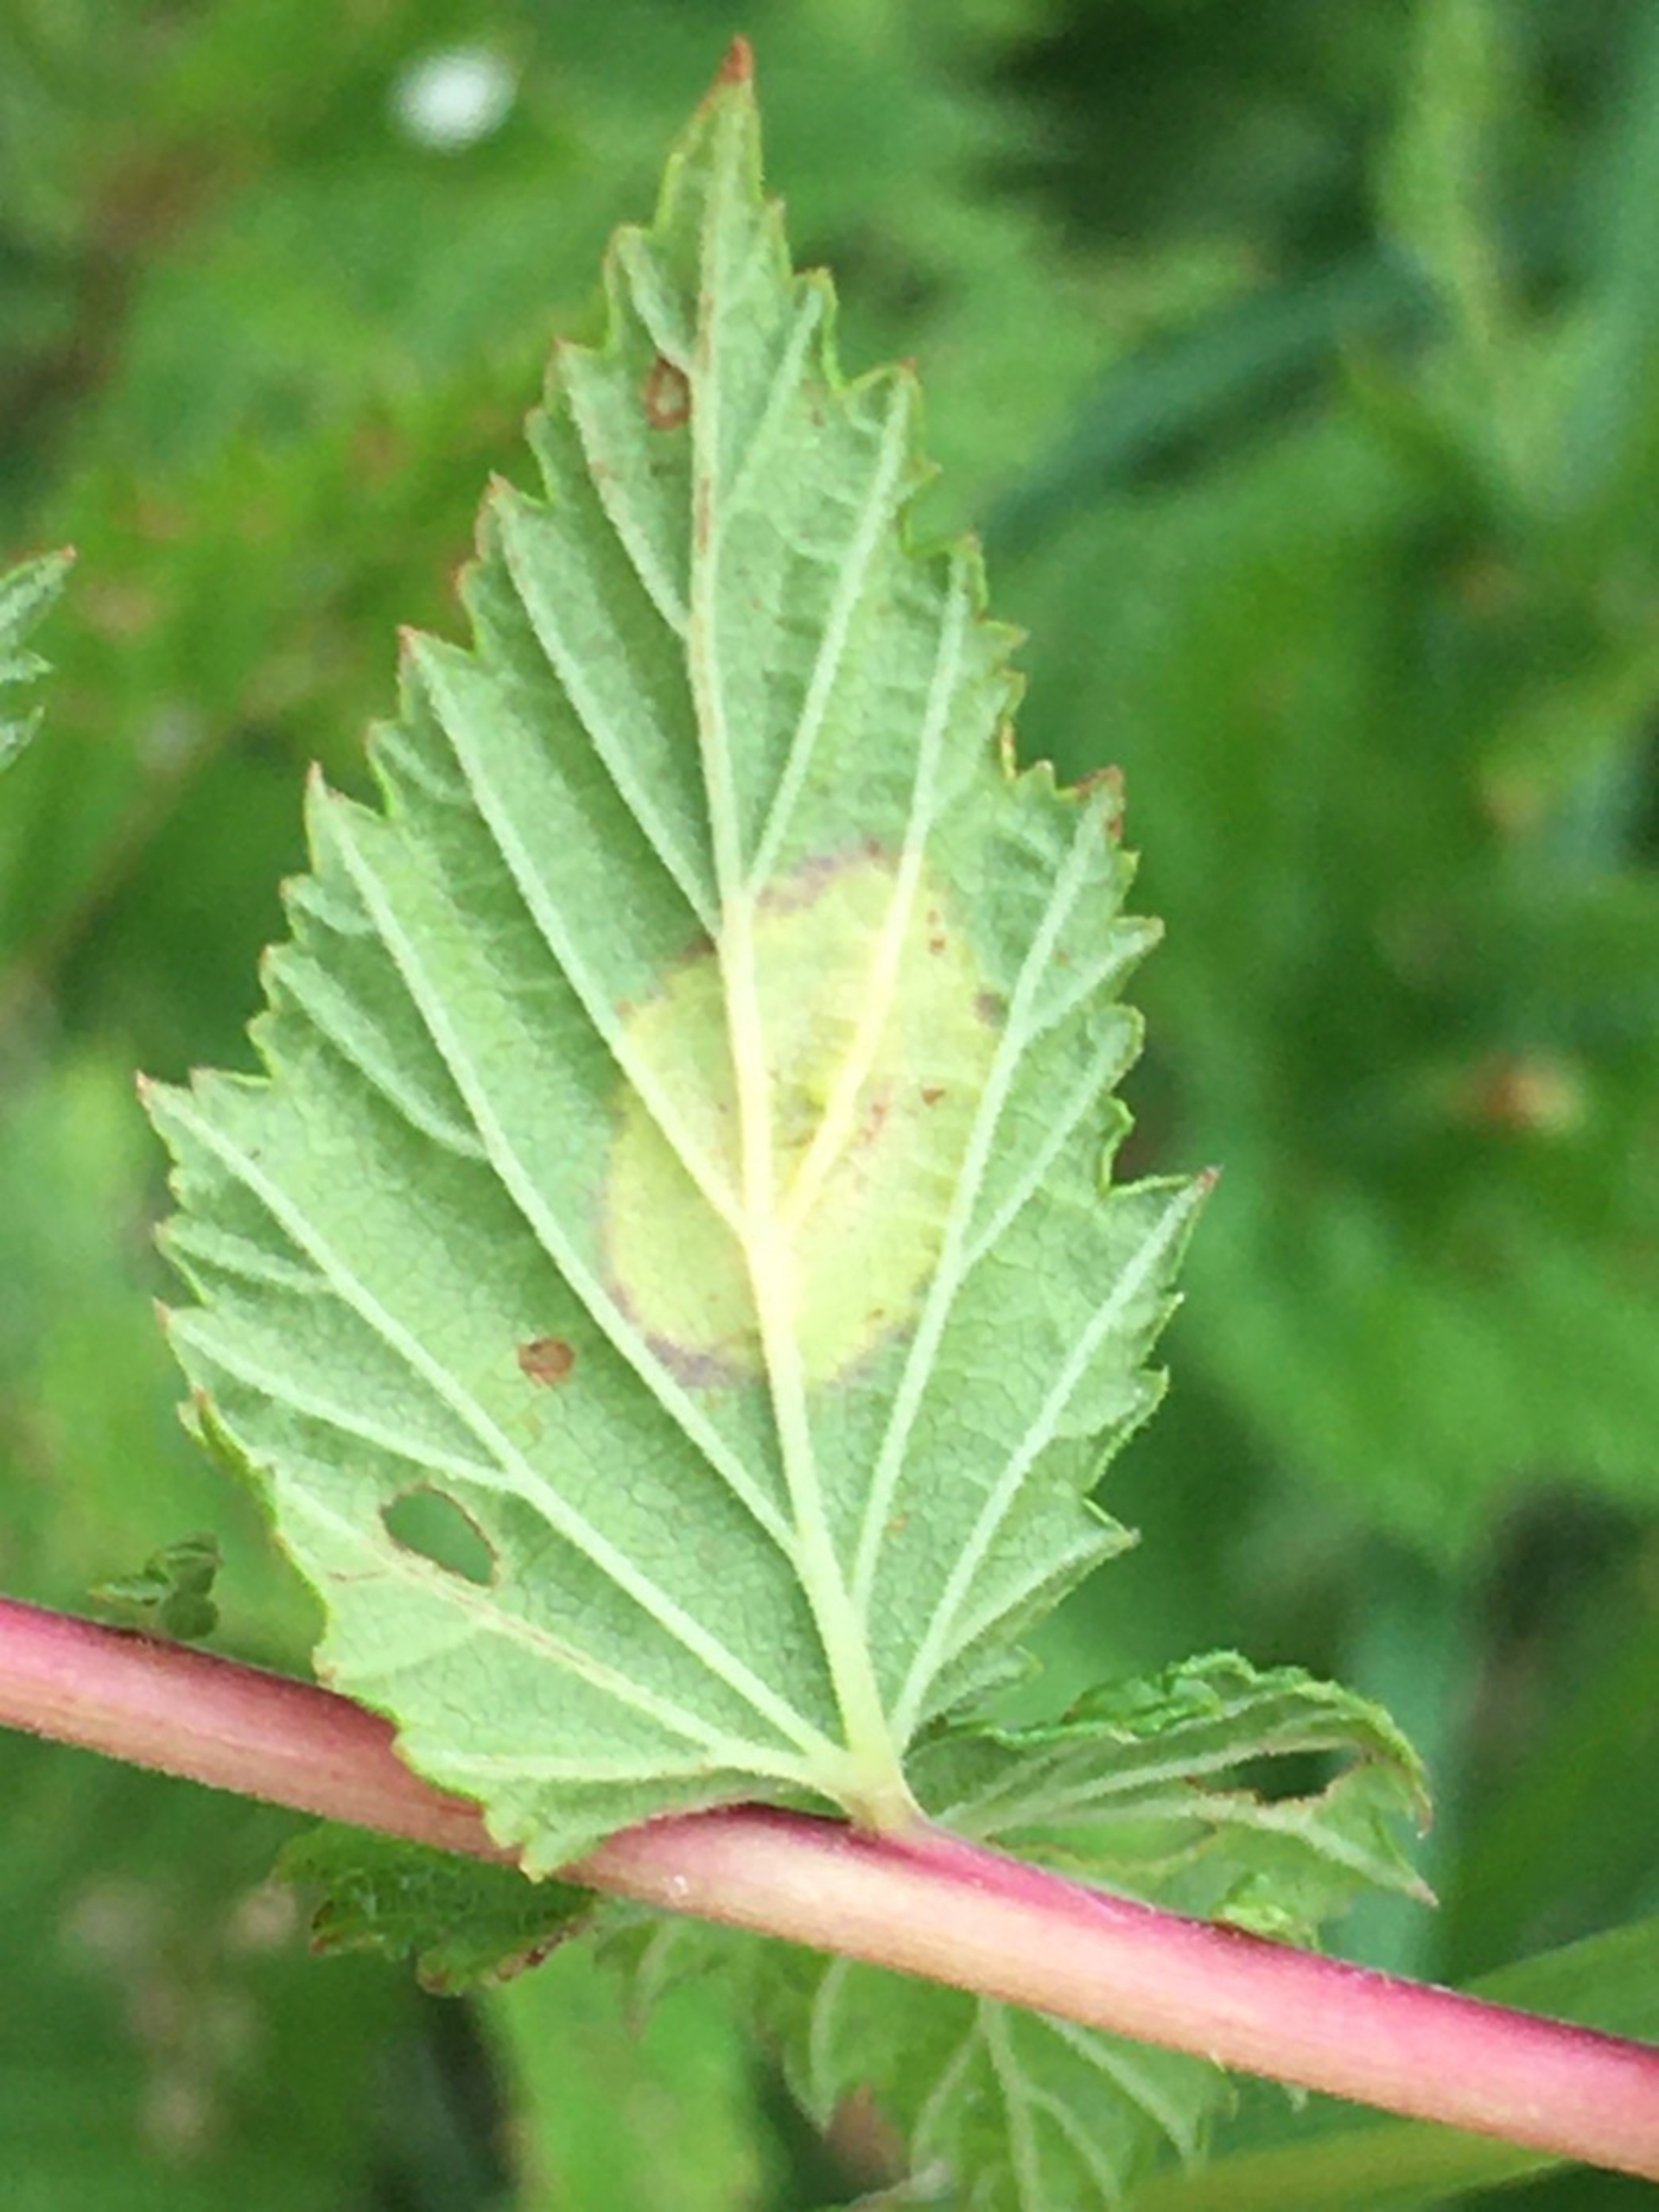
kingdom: Animalia
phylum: Arthropoda
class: Insecta
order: Diptera
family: Cecidomyiidae
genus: Dasineura
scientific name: Dasineura pustulans
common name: Mjødurtblistgalmyg
